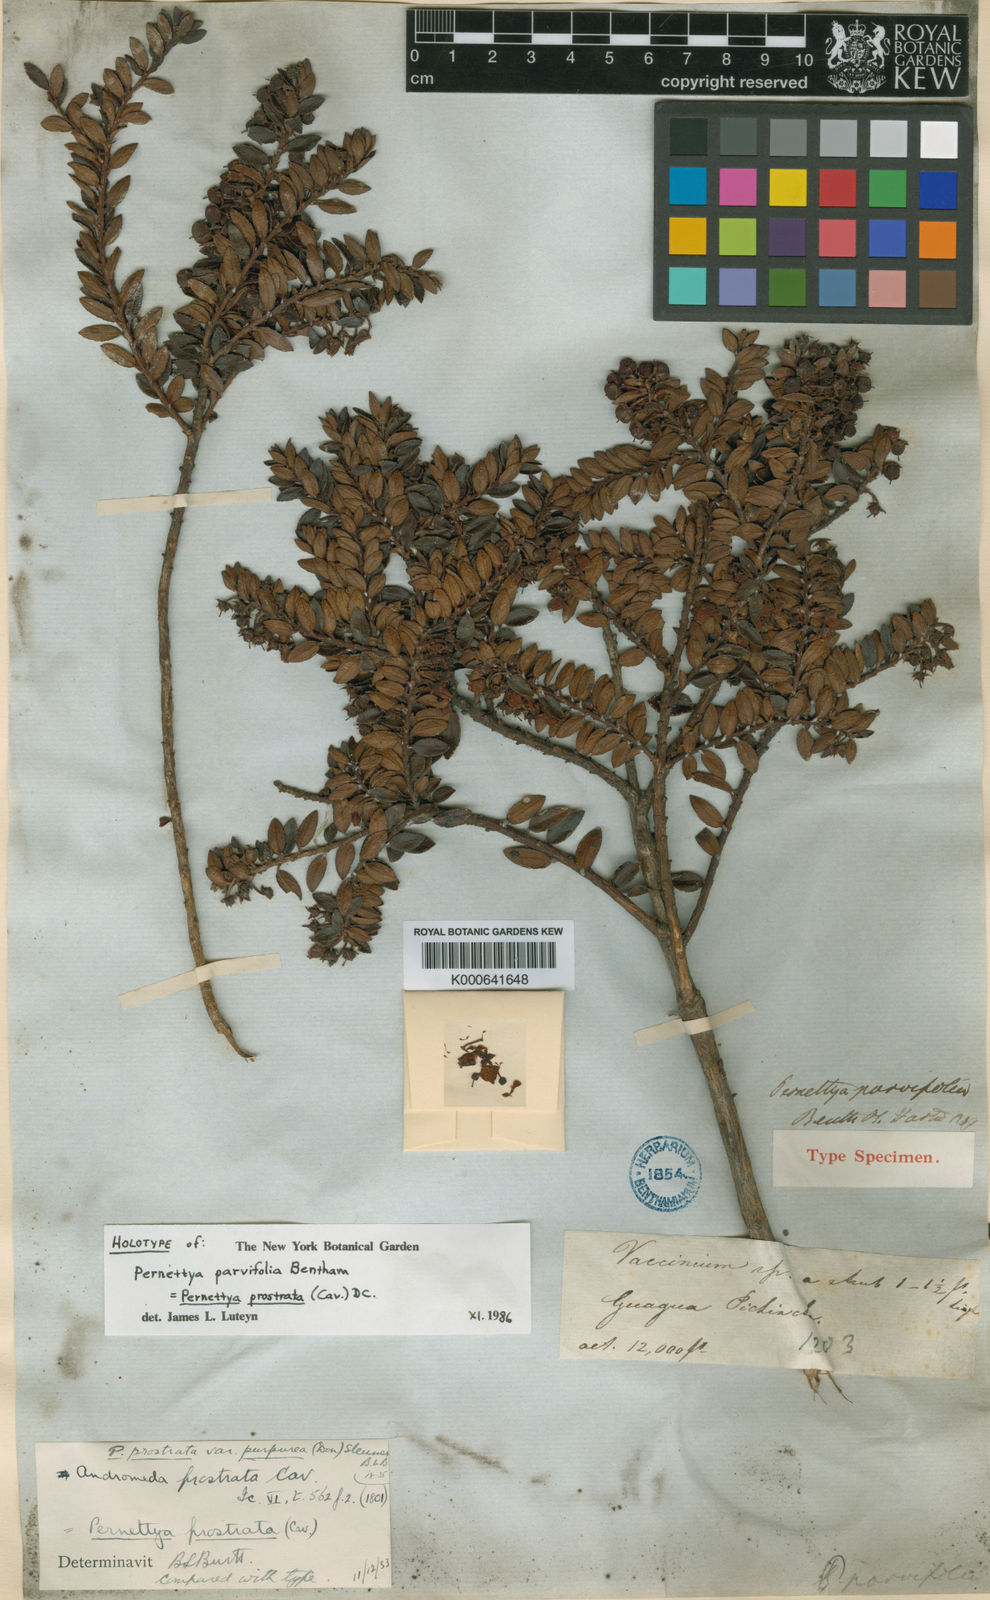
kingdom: Plantae
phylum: Tracheophyta
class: Magnoliopsida
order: Ericales
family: Ericaceae
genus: Gaultheria
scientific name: Gaultheria myrsinoides
